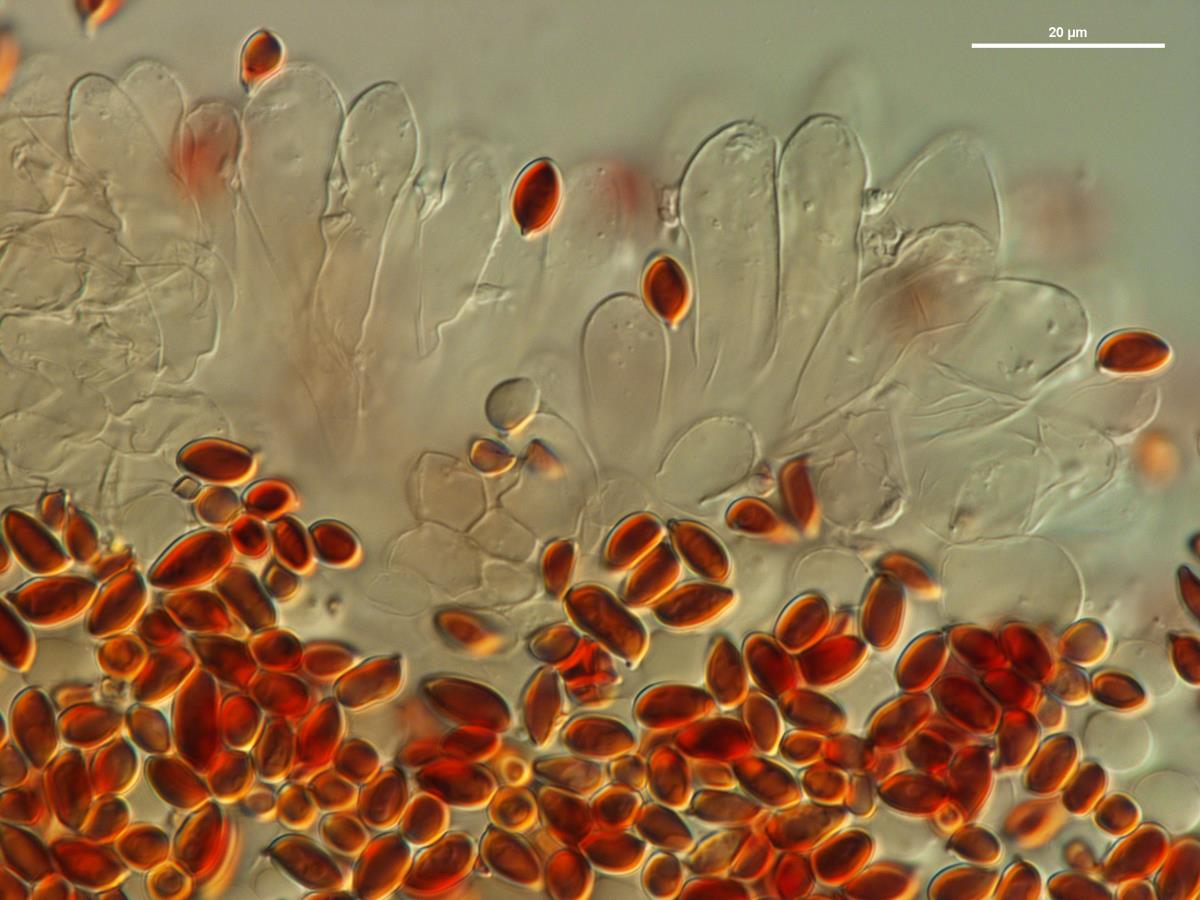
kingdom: Fungi
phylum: Basidiomycota
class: Agaricomycetes
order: Agaricales
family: Agaricaceae
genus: Leucoagaricus
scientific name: Leucoagaricus
